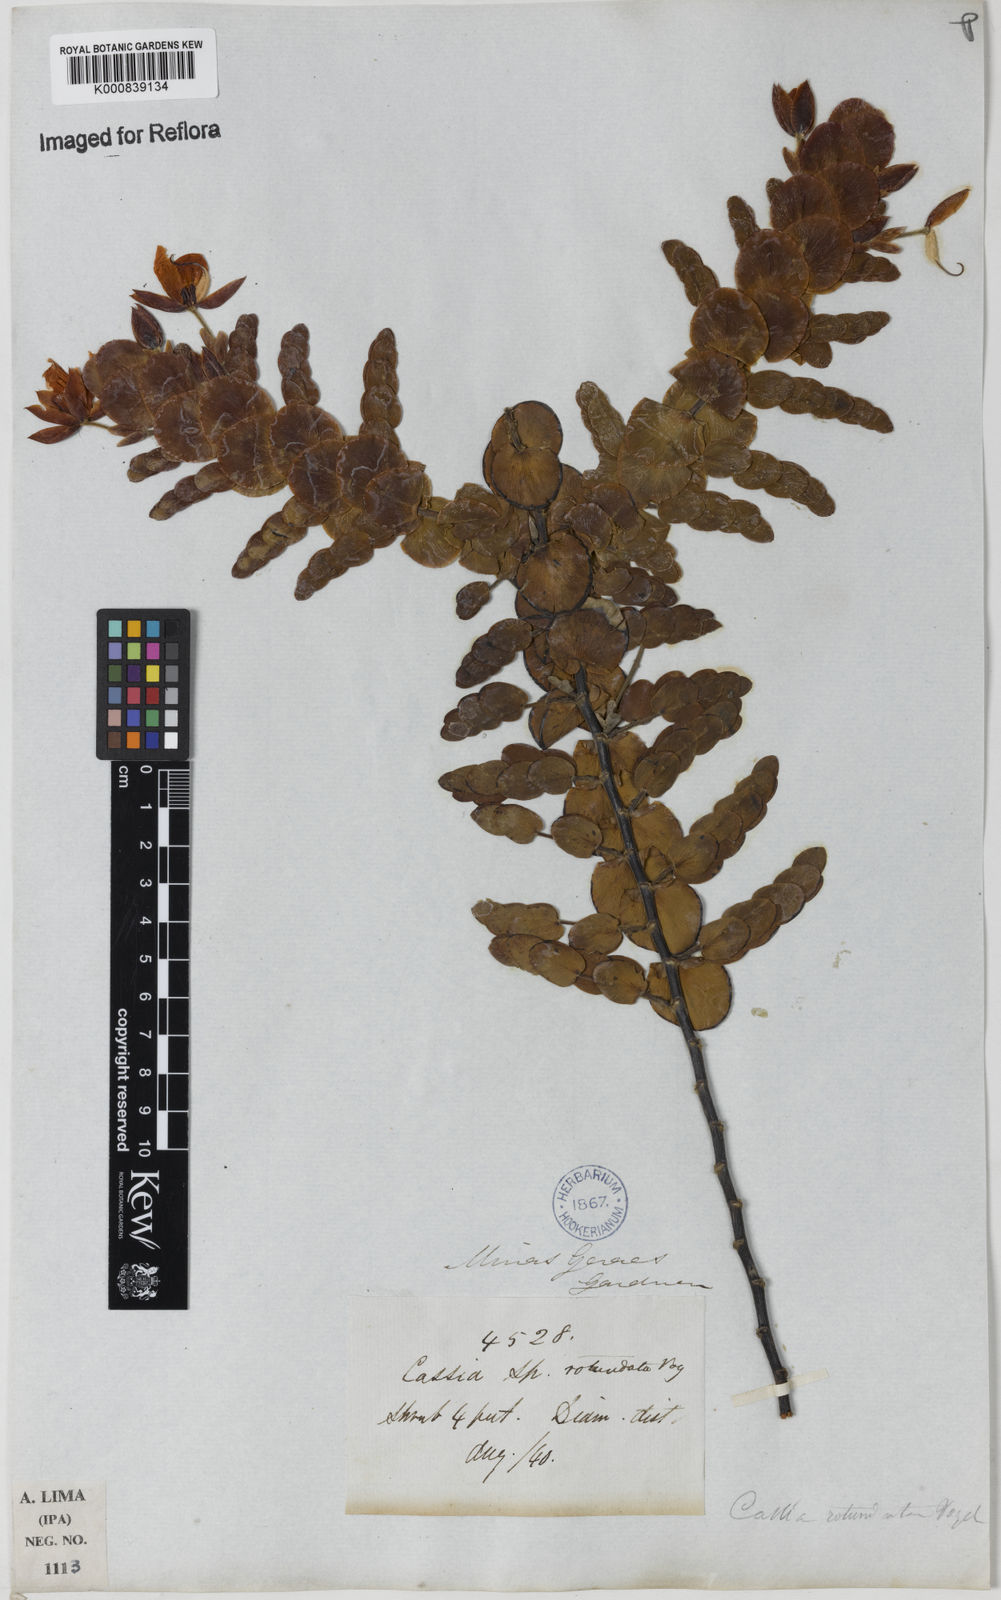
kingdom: Plantae
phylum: Tracheophyta
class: Magnoliopsida
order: Fabales
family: Fabaceae
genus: Chamaecrista
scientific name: Chamaecrista
